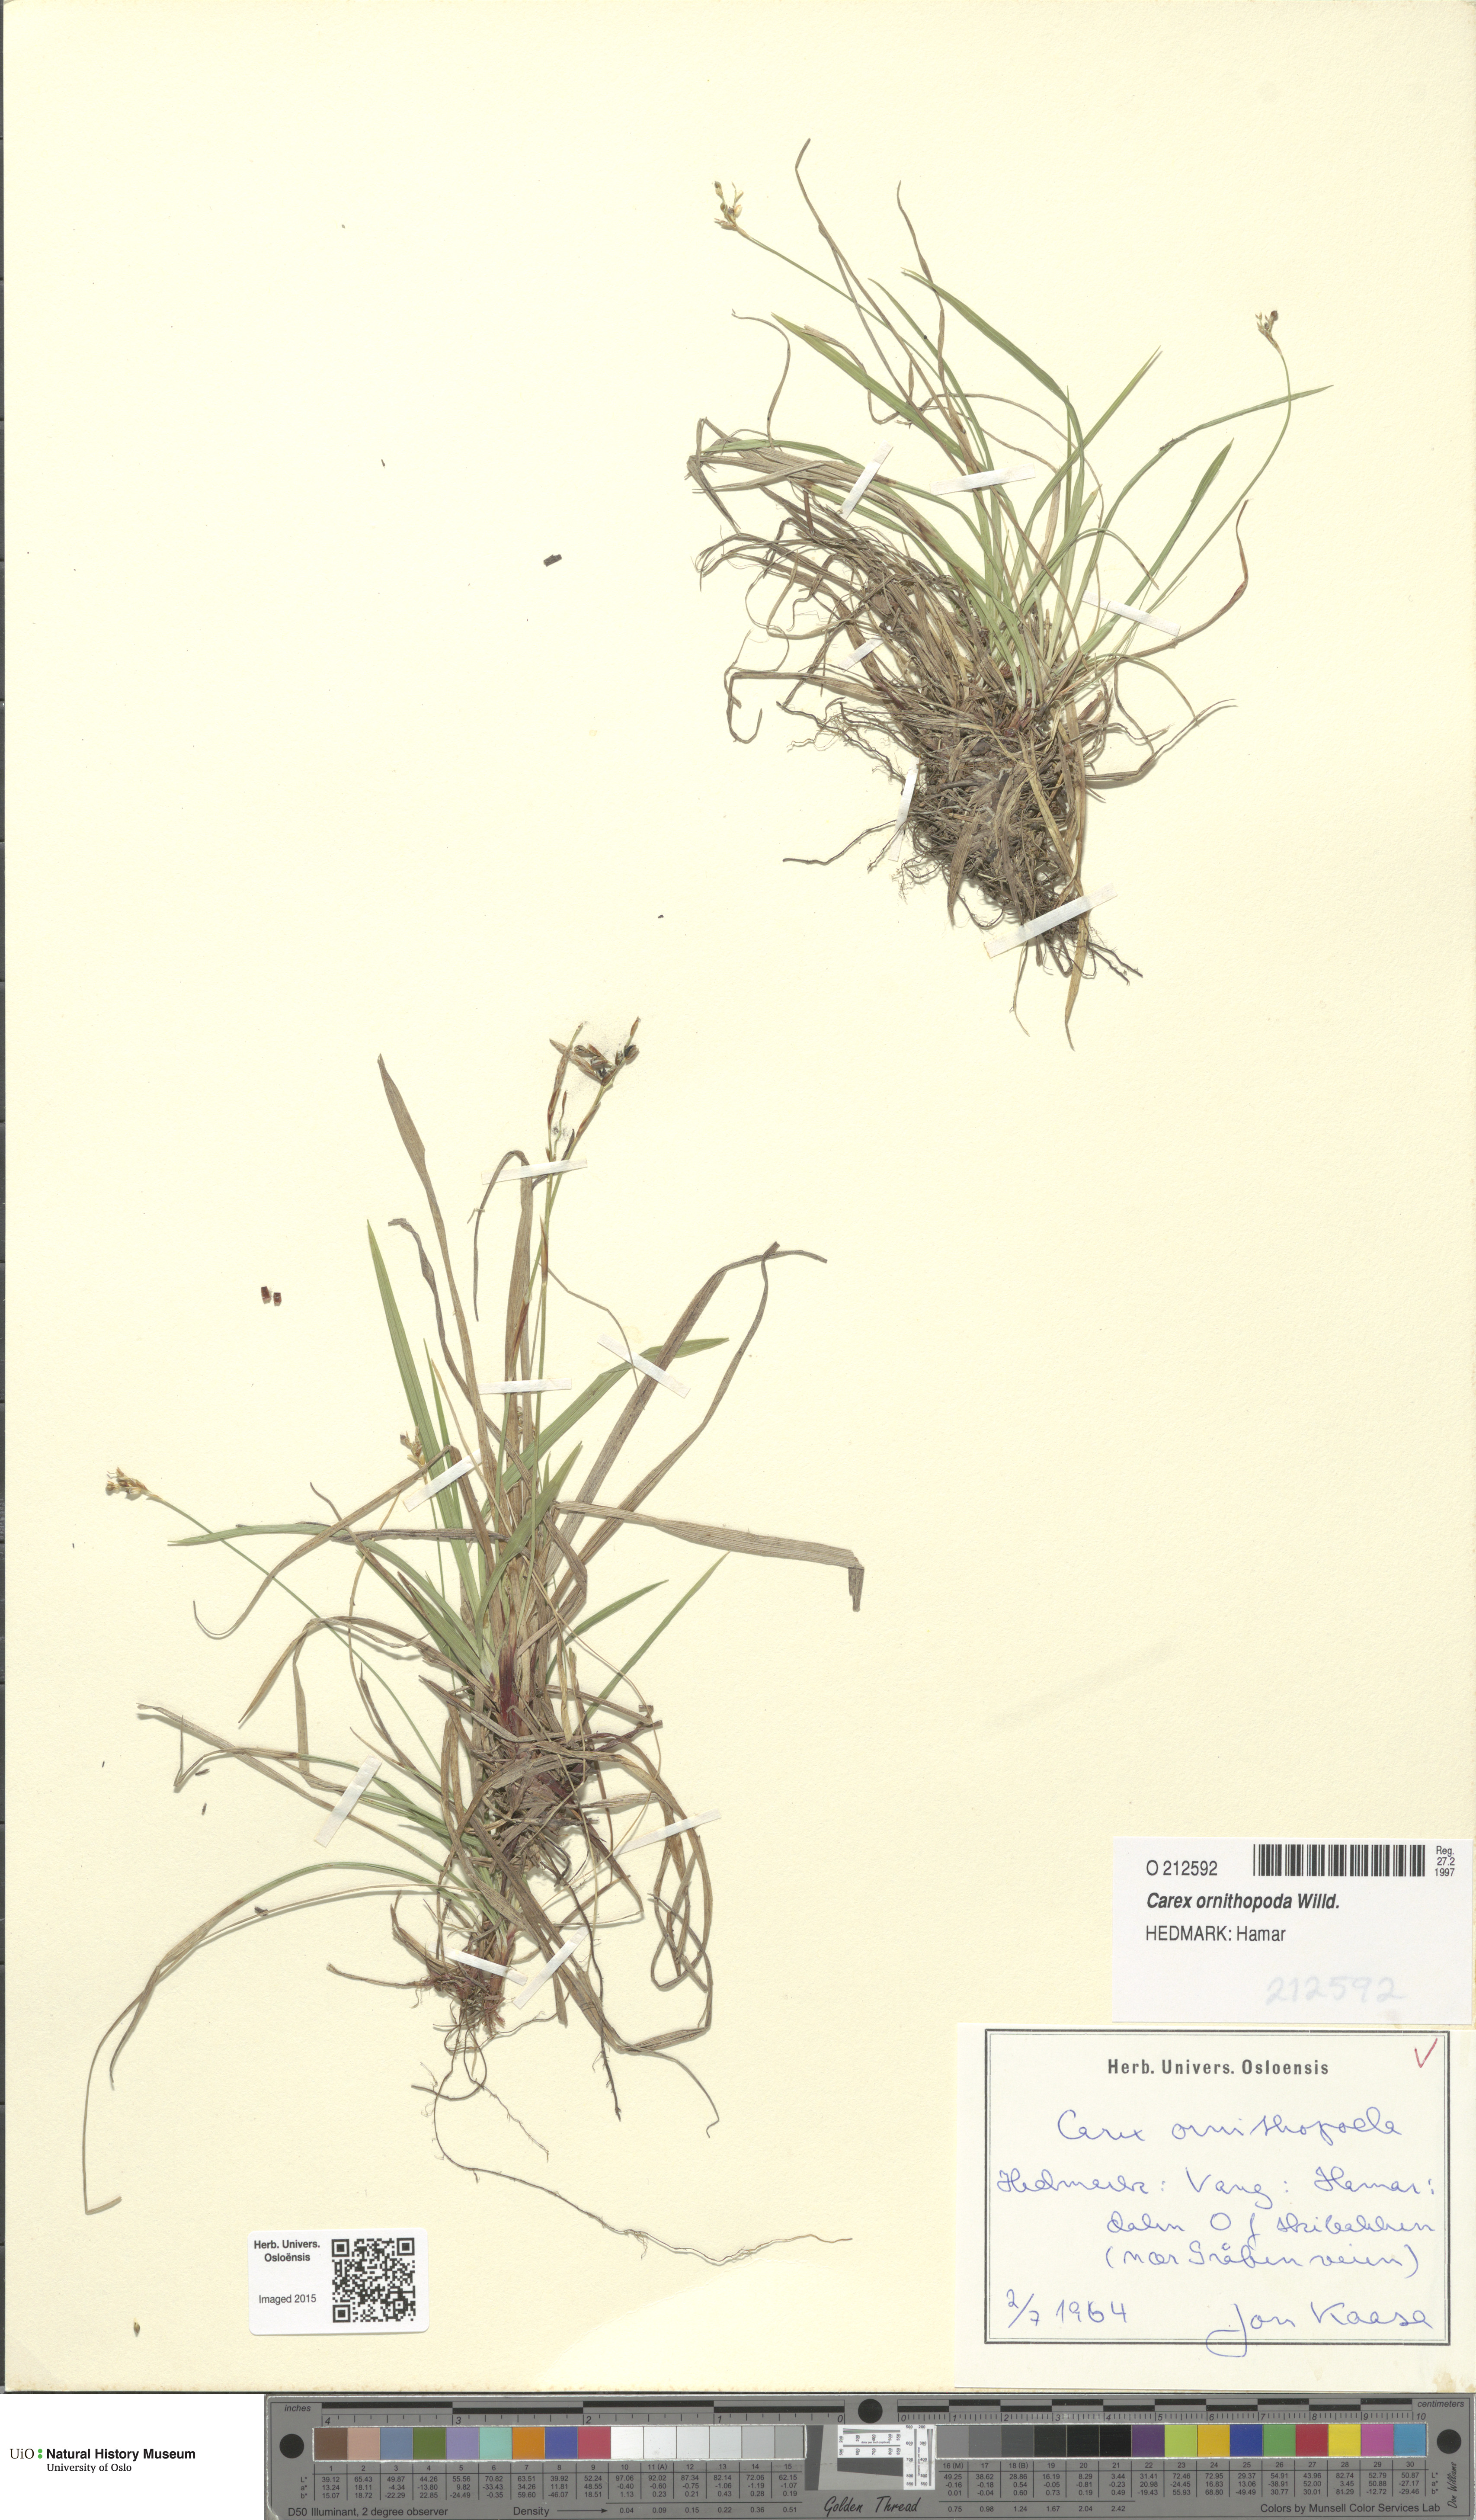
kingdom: Plantae
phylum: Tracheophyta
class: Liliopsida
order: Poales
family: Cyperaceae
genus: Carex
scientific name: Carex ornithopoda
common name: Bird's-foot sedge
